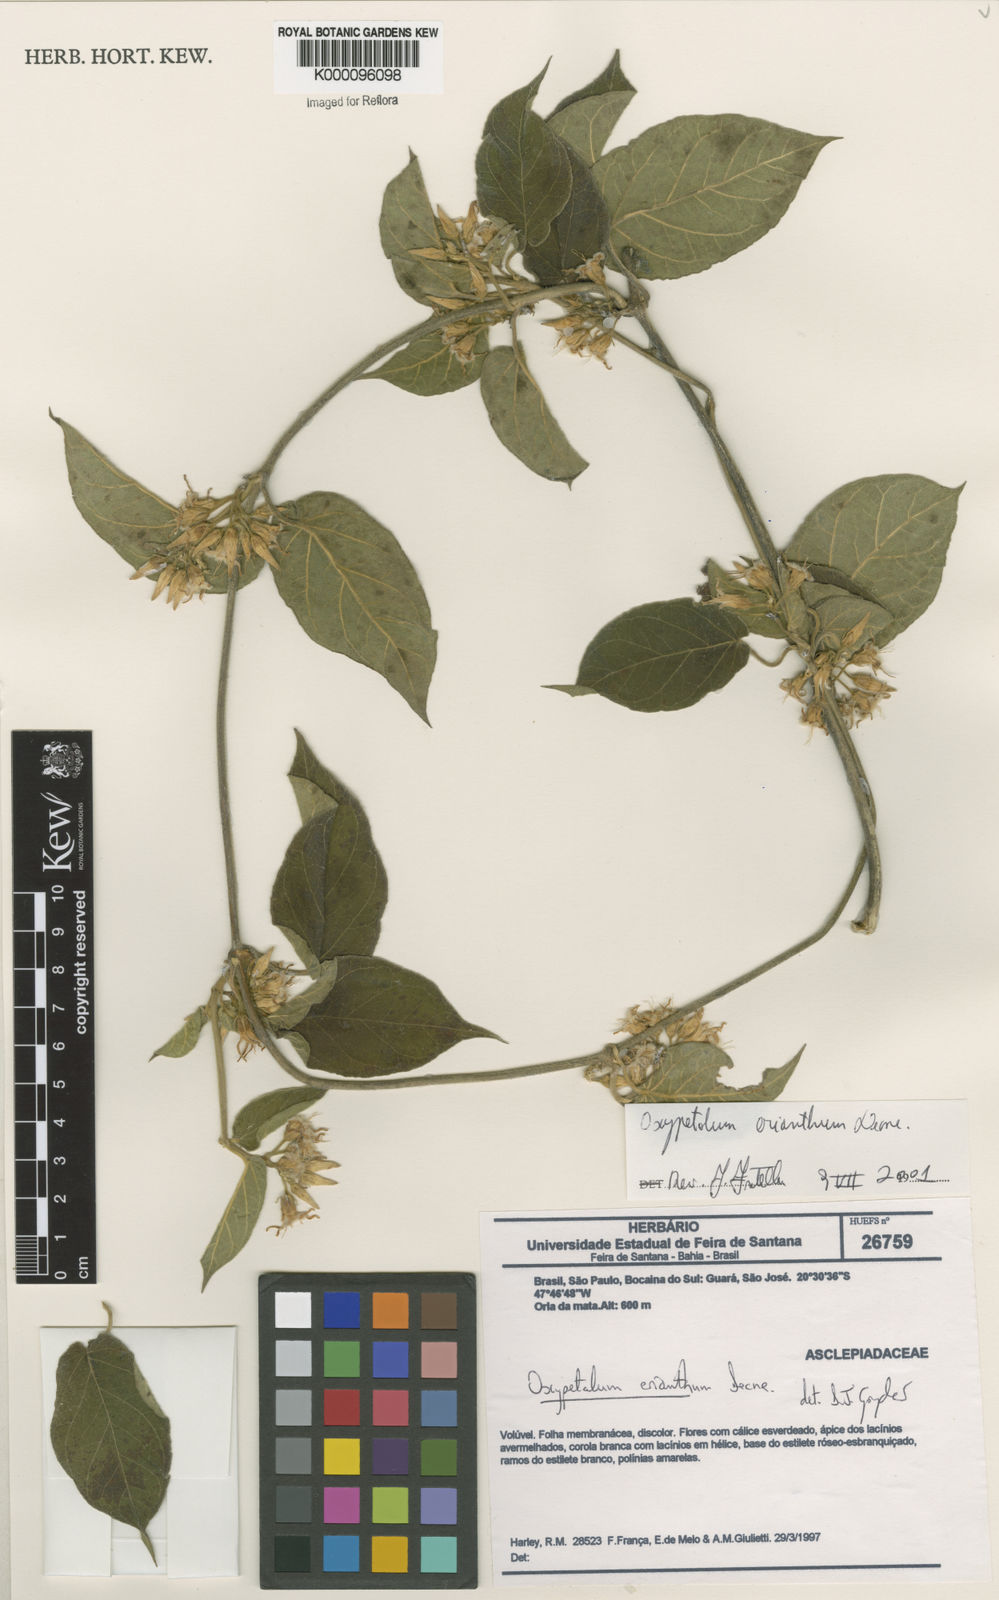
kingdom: Plantae
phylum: Tracheophyta
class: Magnoliopsida
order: Gentianales
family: Apocynaceae
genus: Oxypetalum
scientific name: Oxypetalum erianthum
